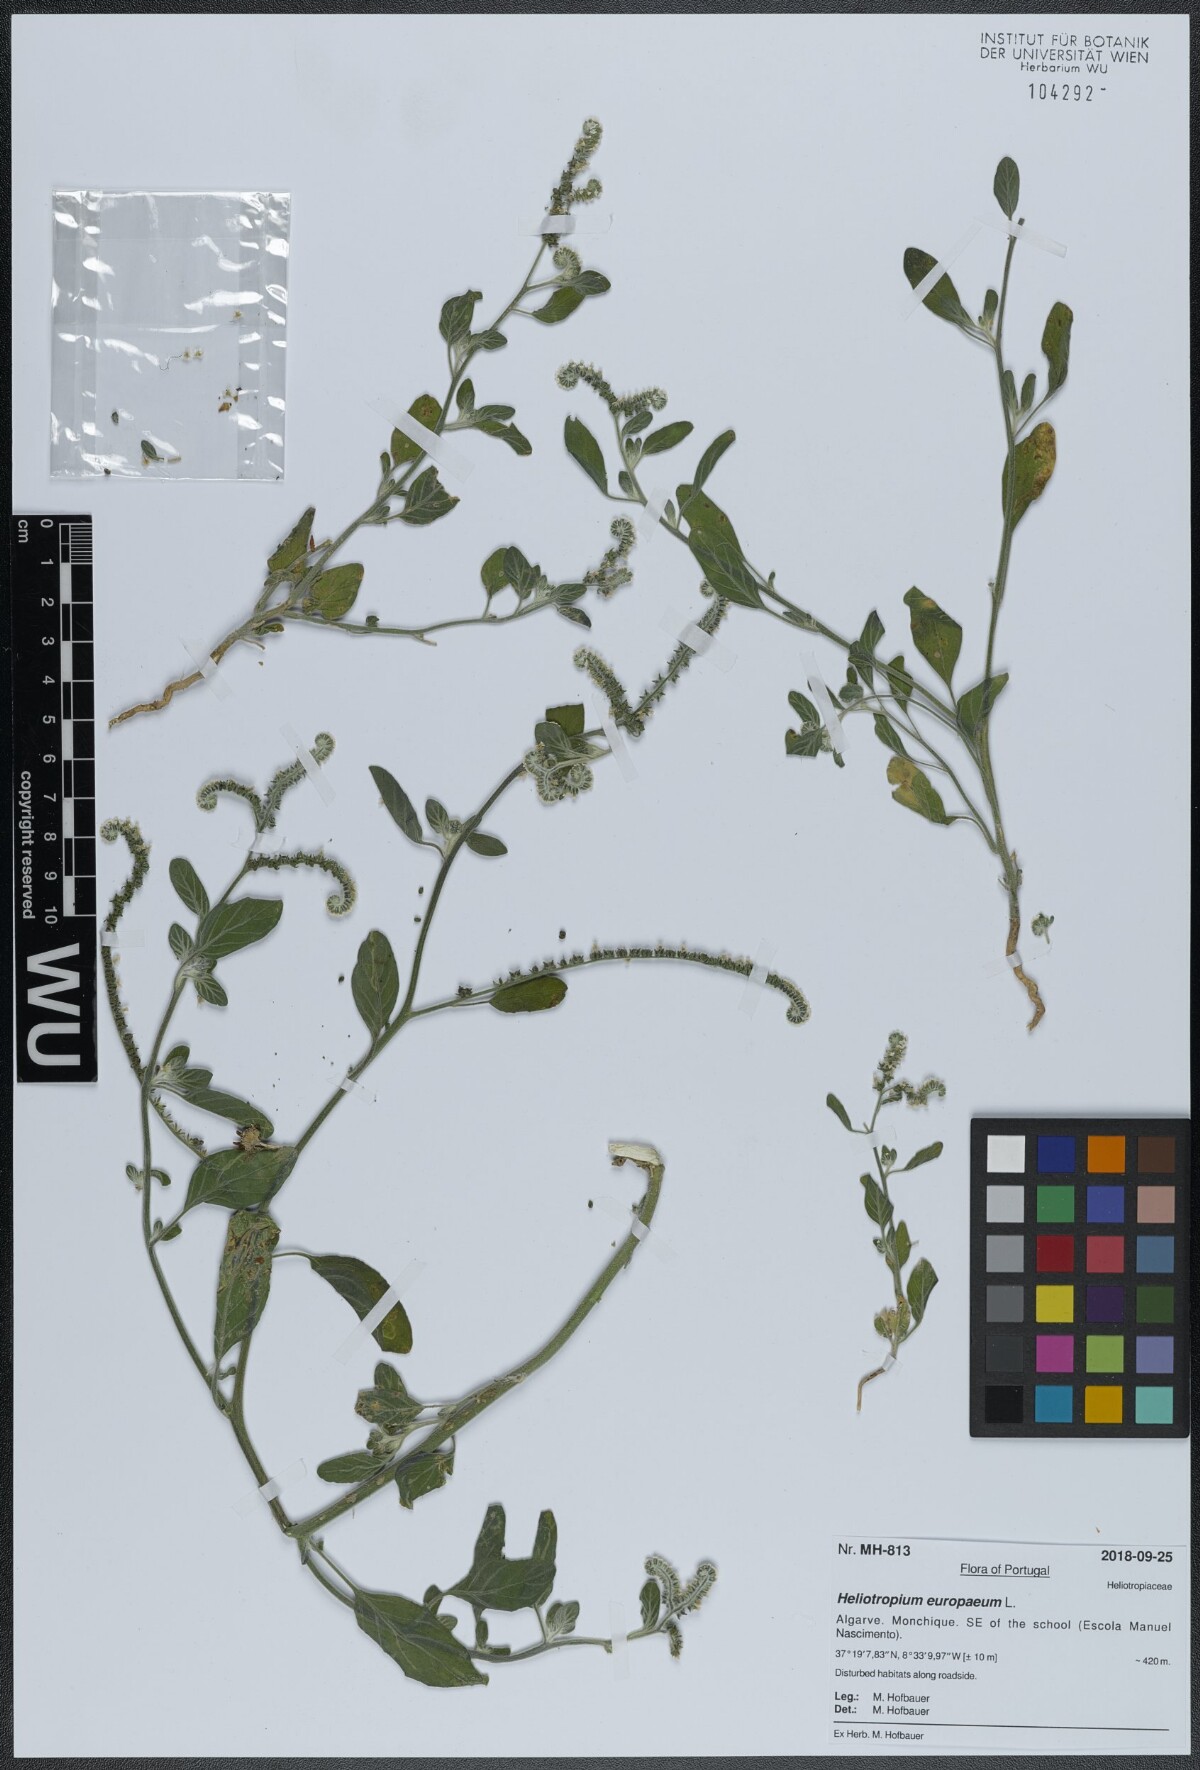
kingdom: Plantae
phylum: Tracheophyta
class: Magnoliopsida
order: Boraginales
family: Heliotropiaceae
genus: Heliotropium
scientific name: Heliotropium europaeum
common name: European heliotrope
